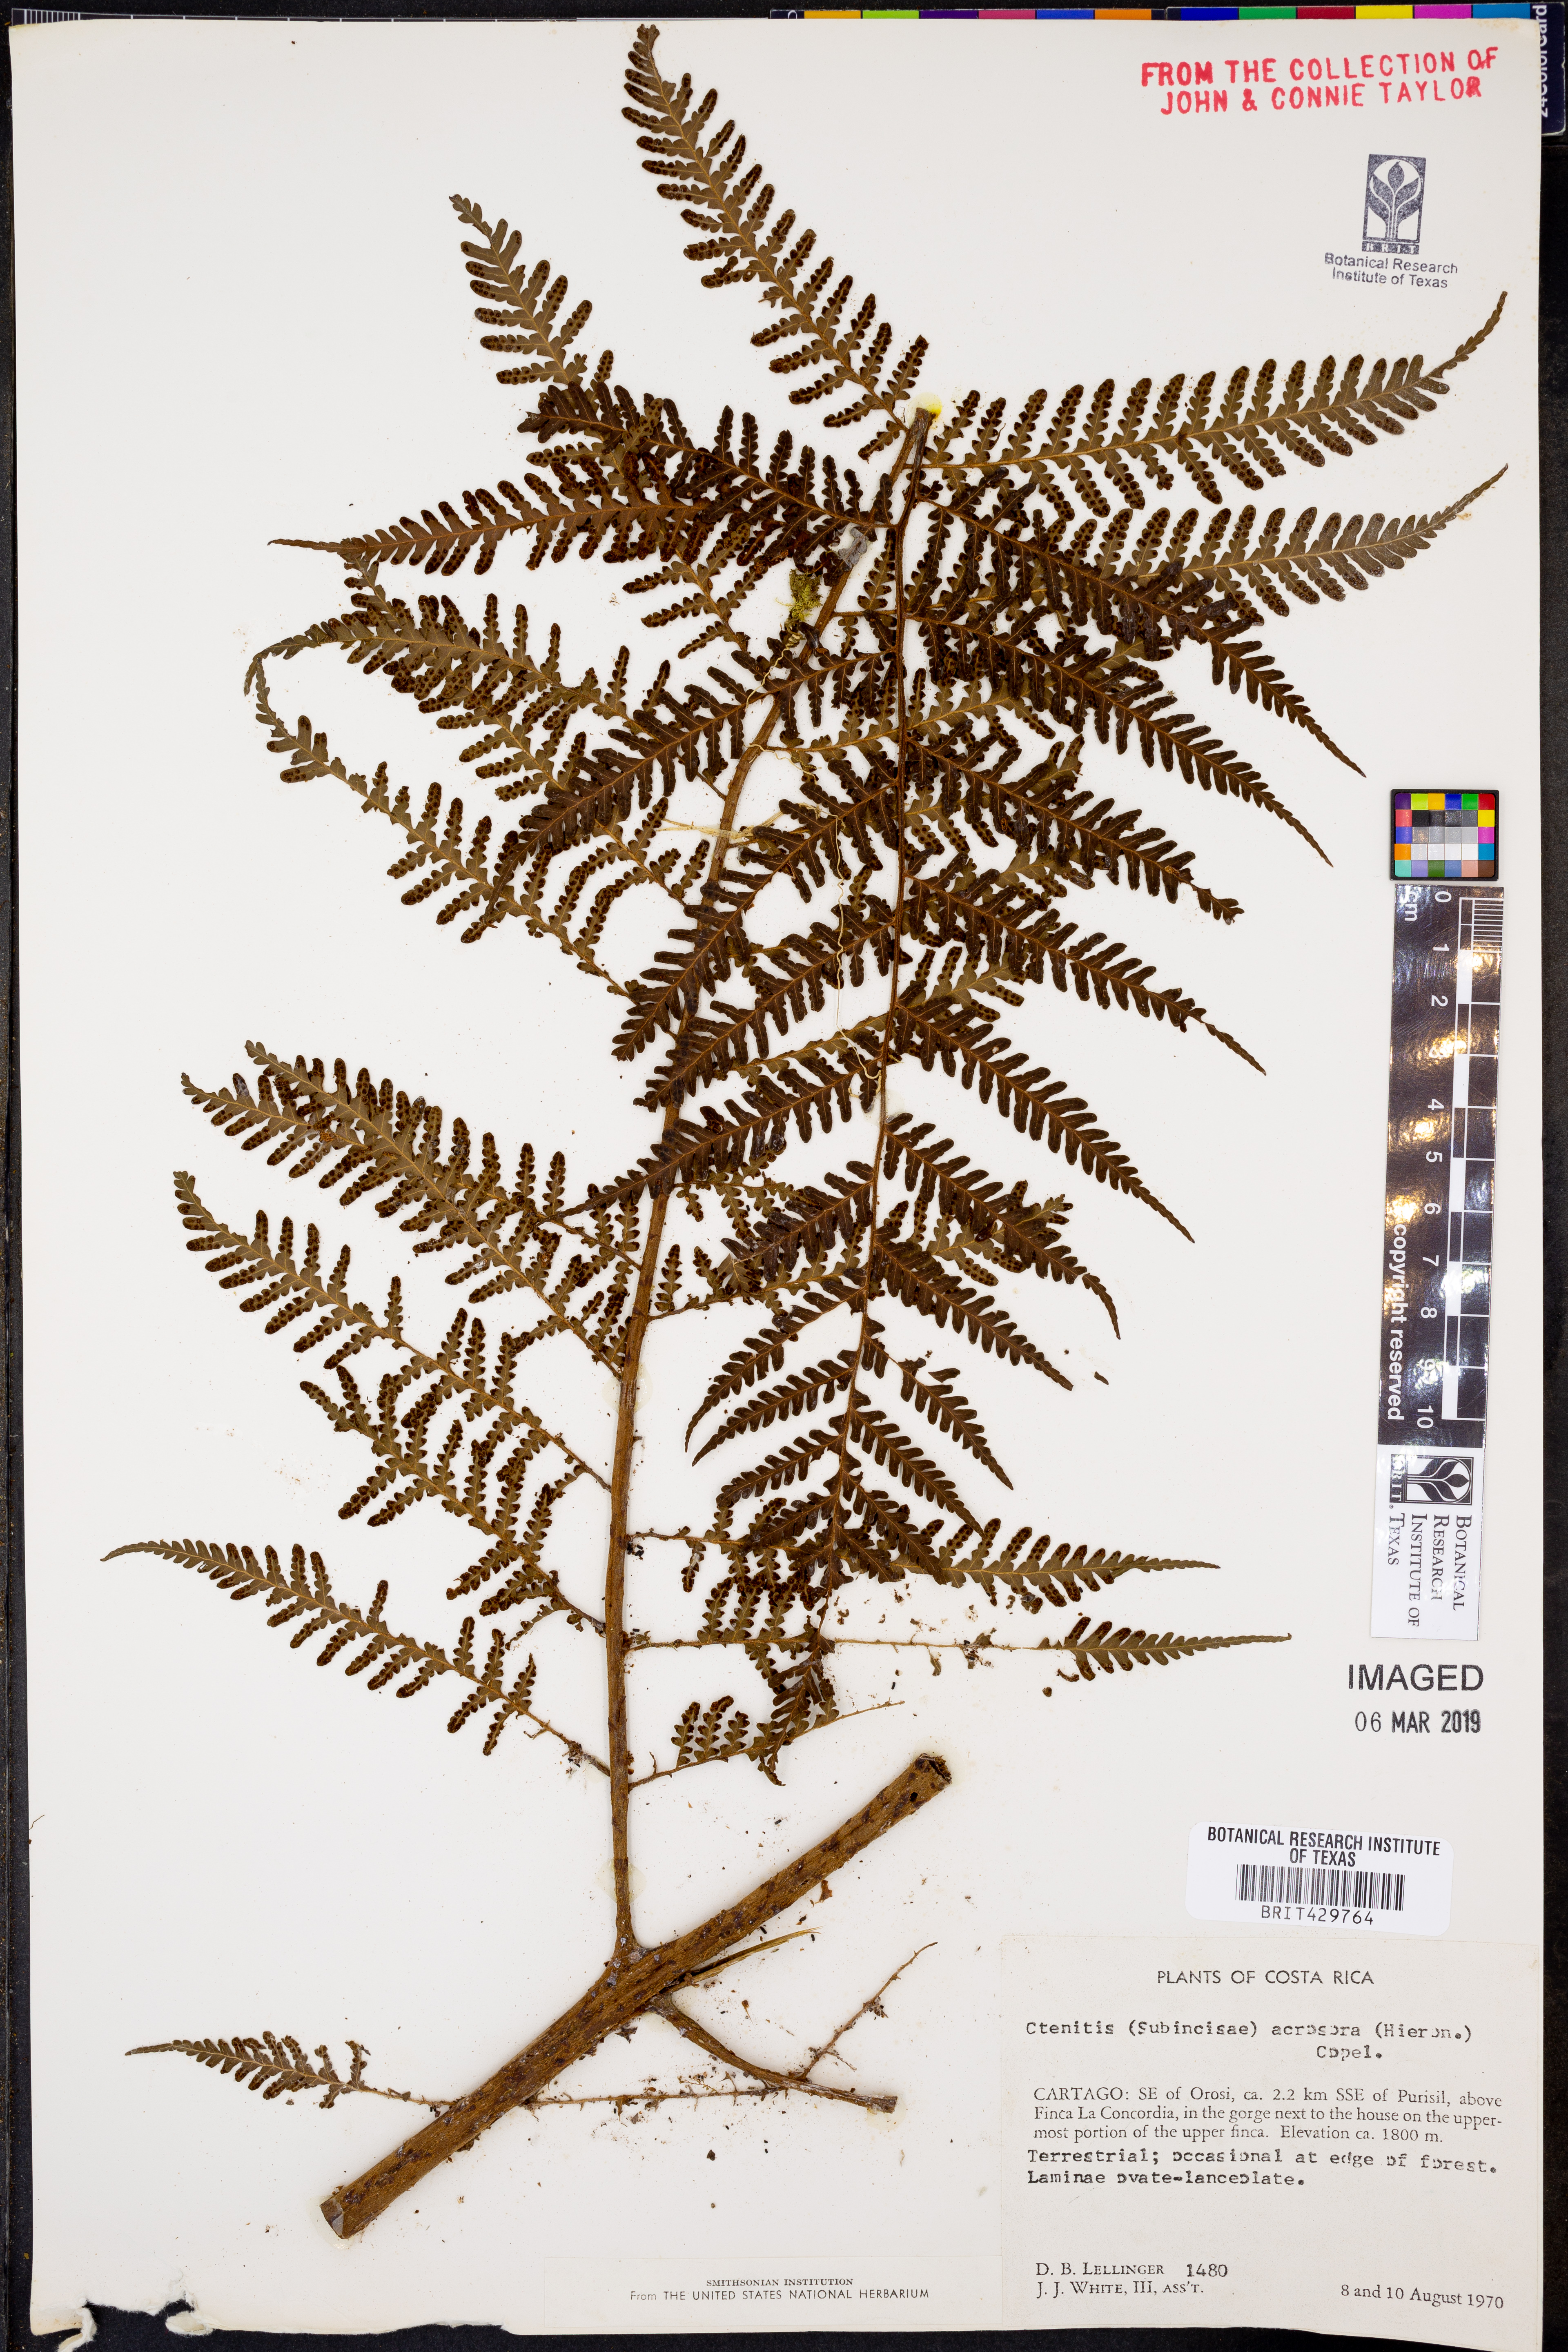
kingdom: Plantae
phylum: Tracheophyta
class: Polypodiopsida
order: Polypodiales
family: Dryopteridaceae
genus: Megalastrum
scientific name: Megalastrum acrosorum
